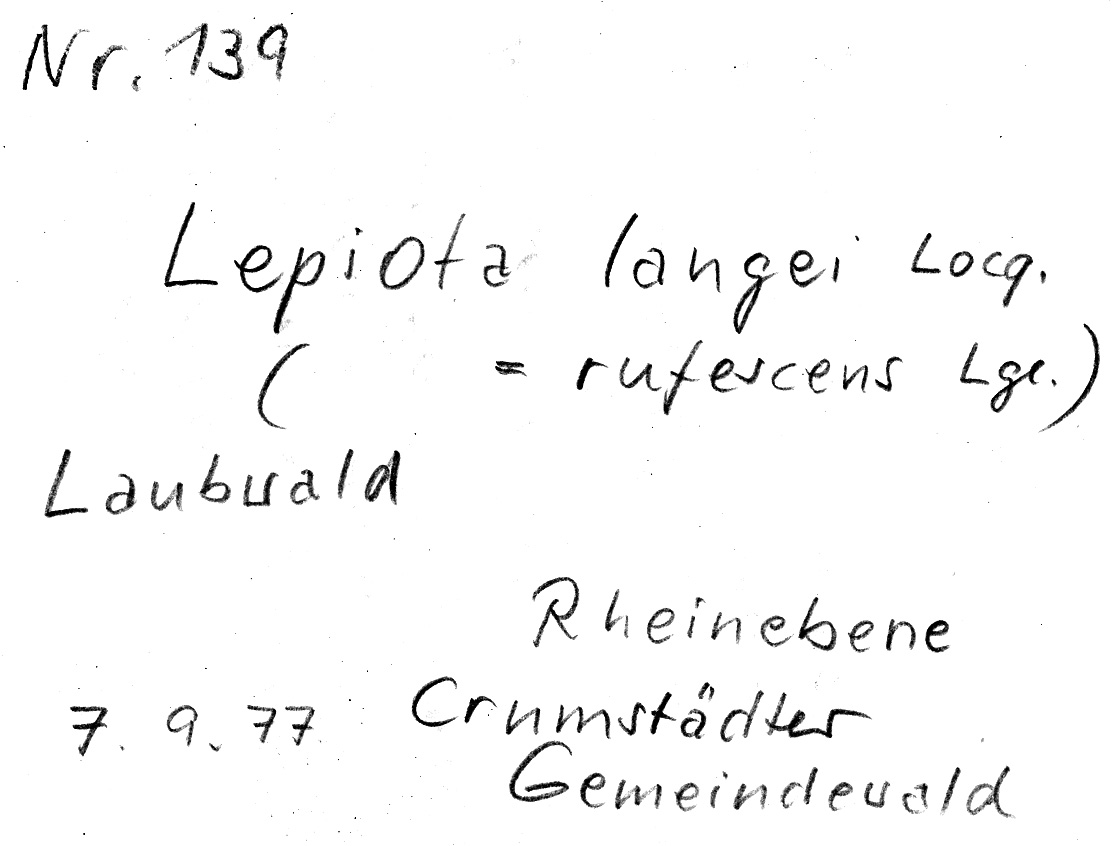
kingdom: Fungi
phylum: Basidiomycota
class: Agaricomycetes
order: Agaricales
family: Agaricaceae
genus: Cystolepiota
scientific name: Cystolepiota hetieri
